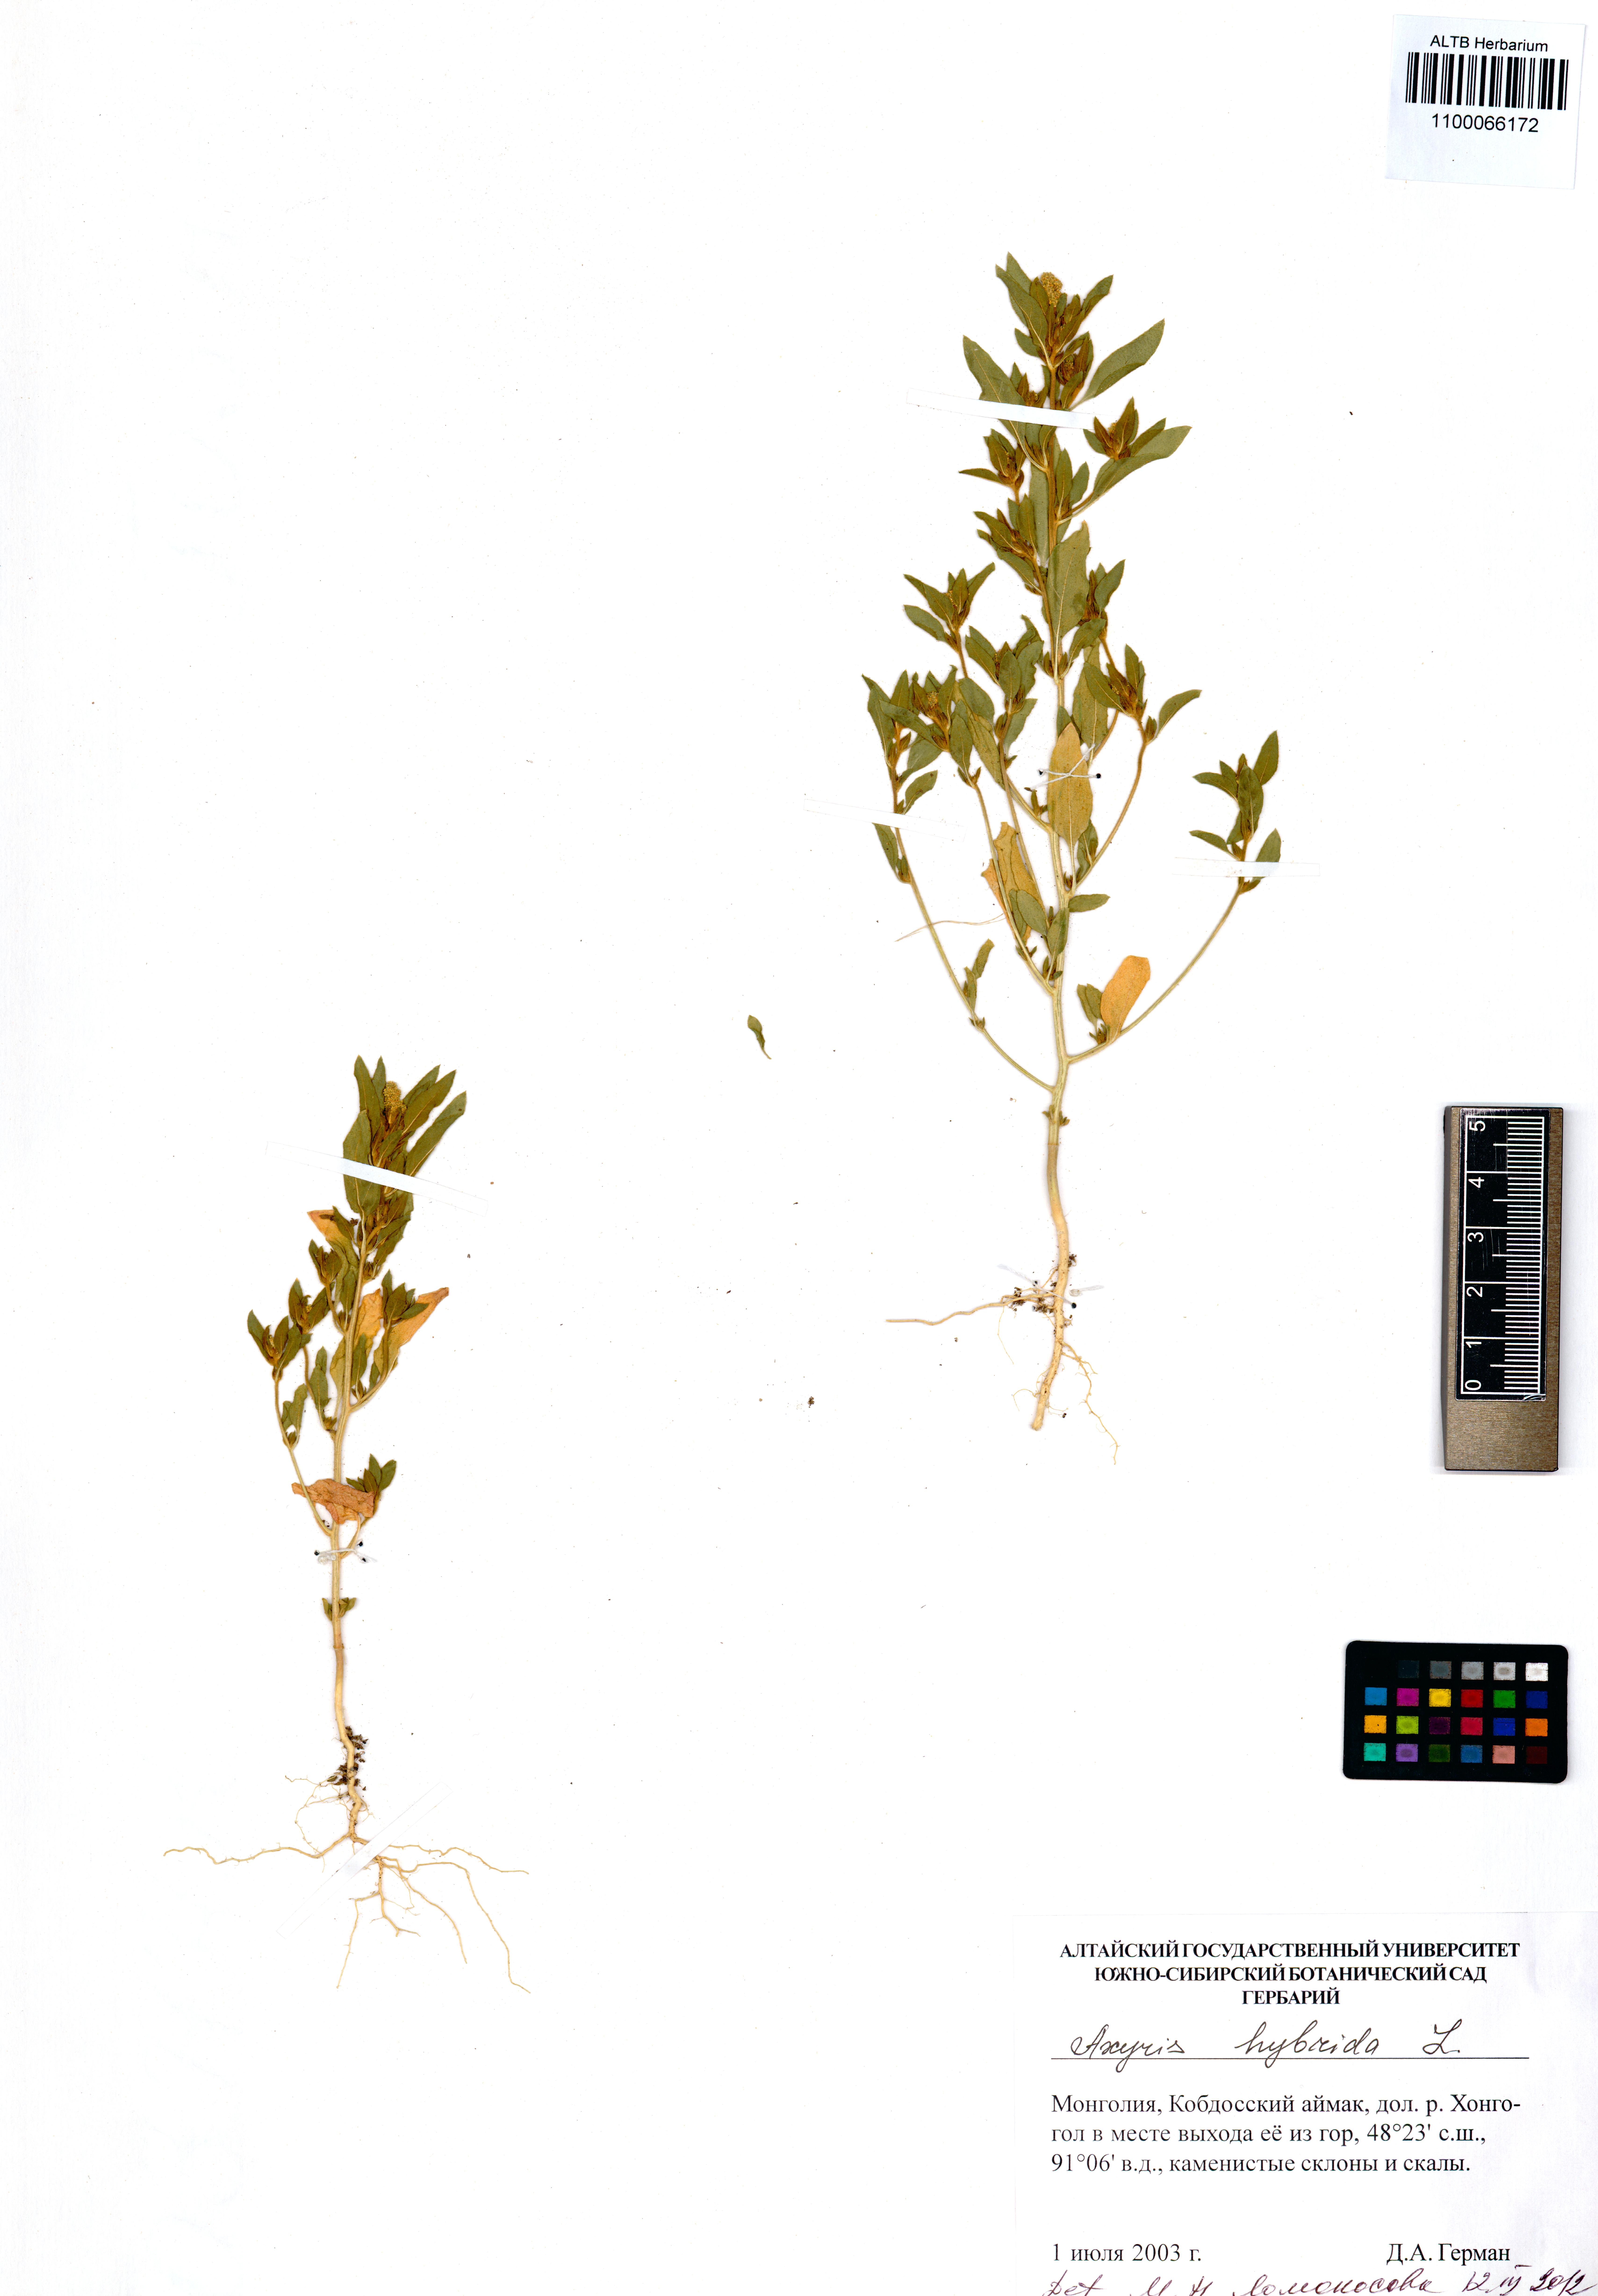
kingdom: Plantae
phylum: Tracheophyta
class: Magnoliopsida
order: Caryophyllales
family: Amaranthaceae
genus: Axyris
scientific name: Axyris hybrida
